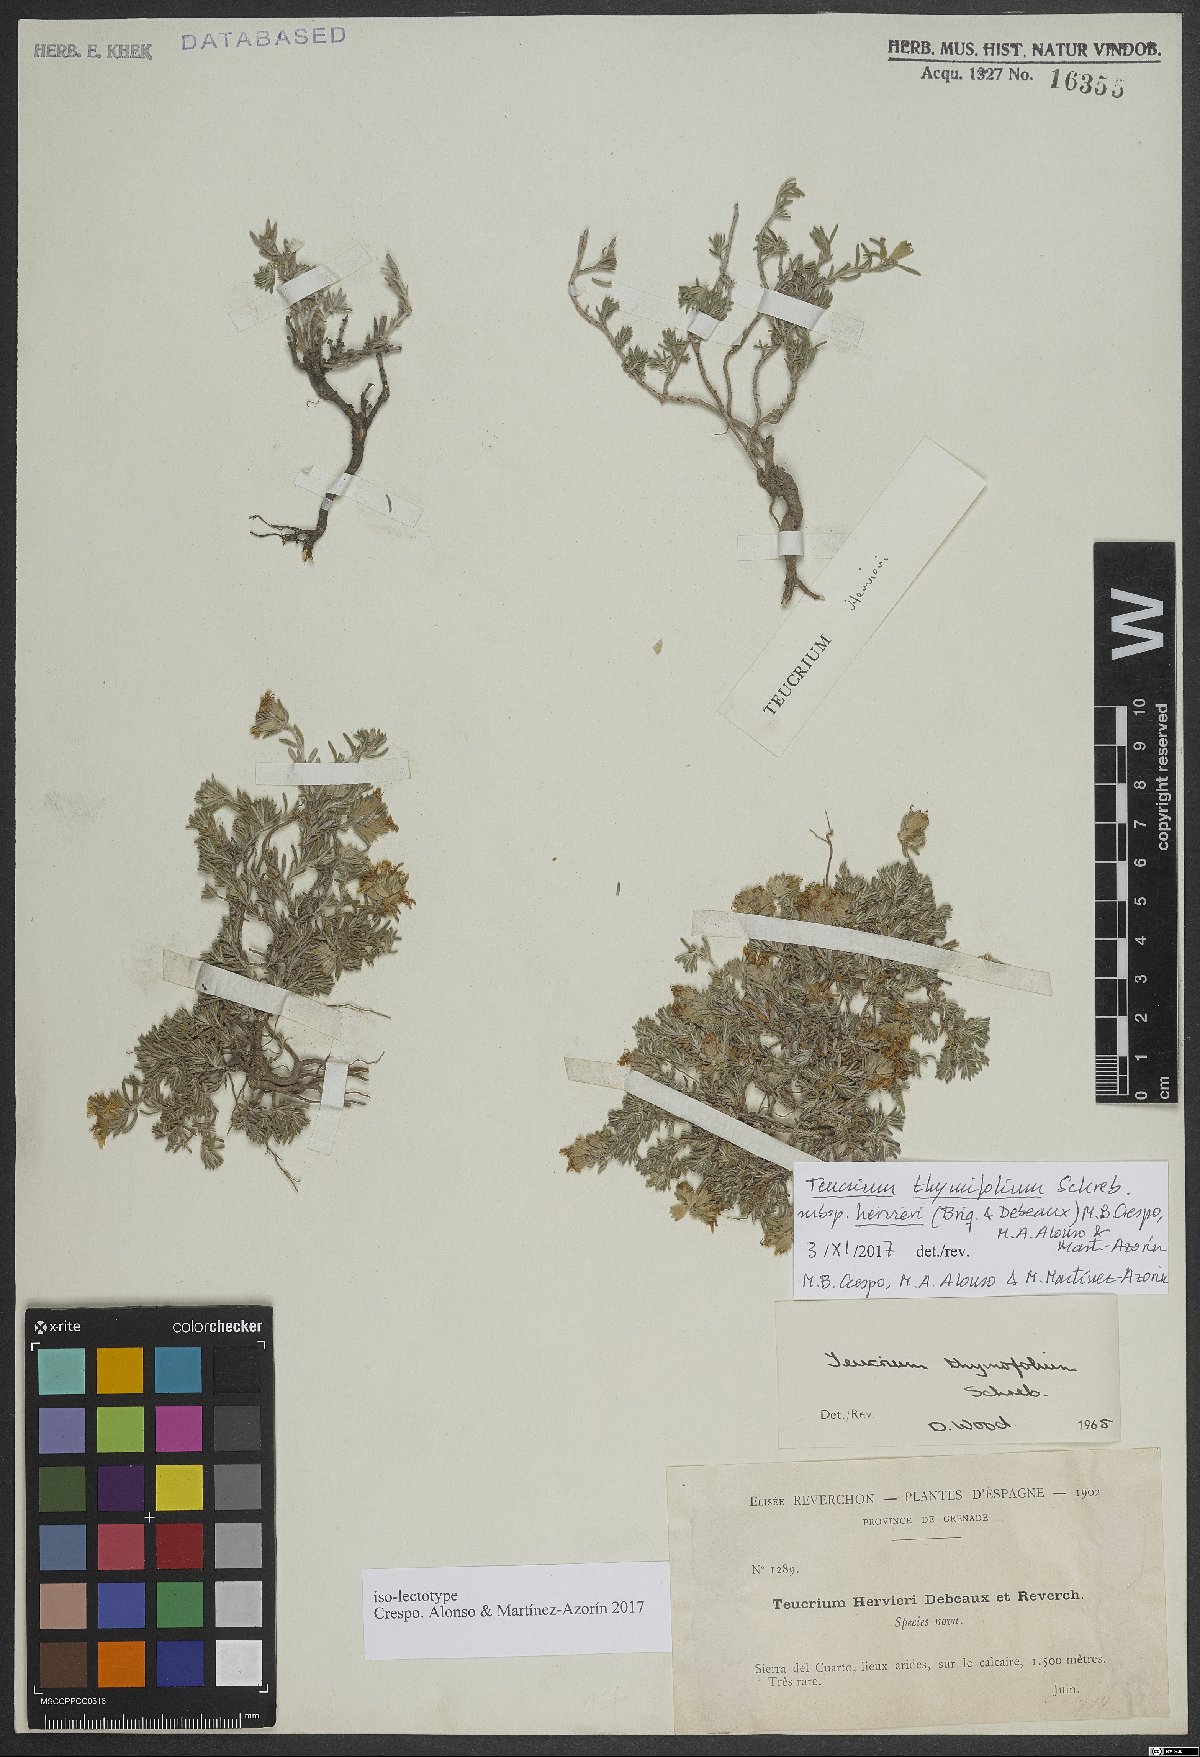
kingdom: Plantae
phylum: Tracheophyta
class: Magnoliopsida
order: Lamiales
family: Lamiaceae
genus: Teucrium
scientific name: Teucrium thymifolium
